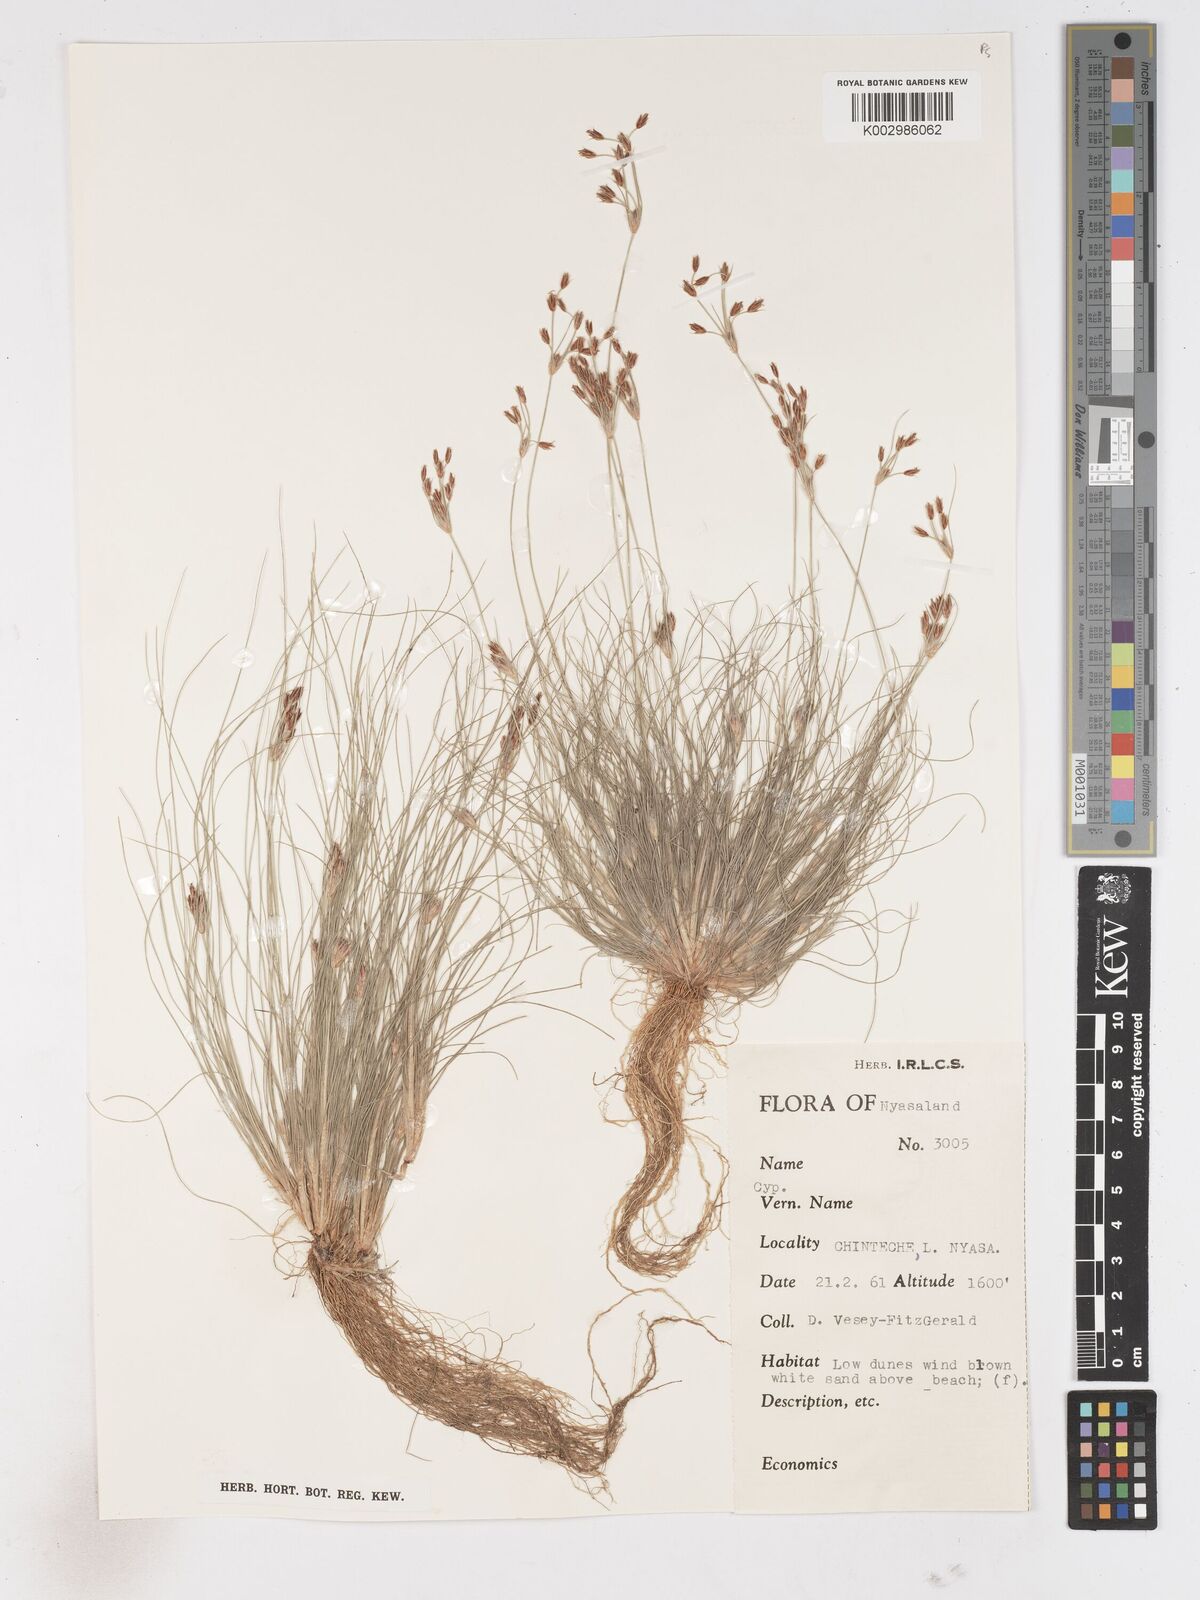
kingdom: Plantae
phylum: Tracheophyta
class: Liliopsida
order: Poales
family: Cyperaceae
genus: Fimbristylis
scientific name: Fimbristylis
